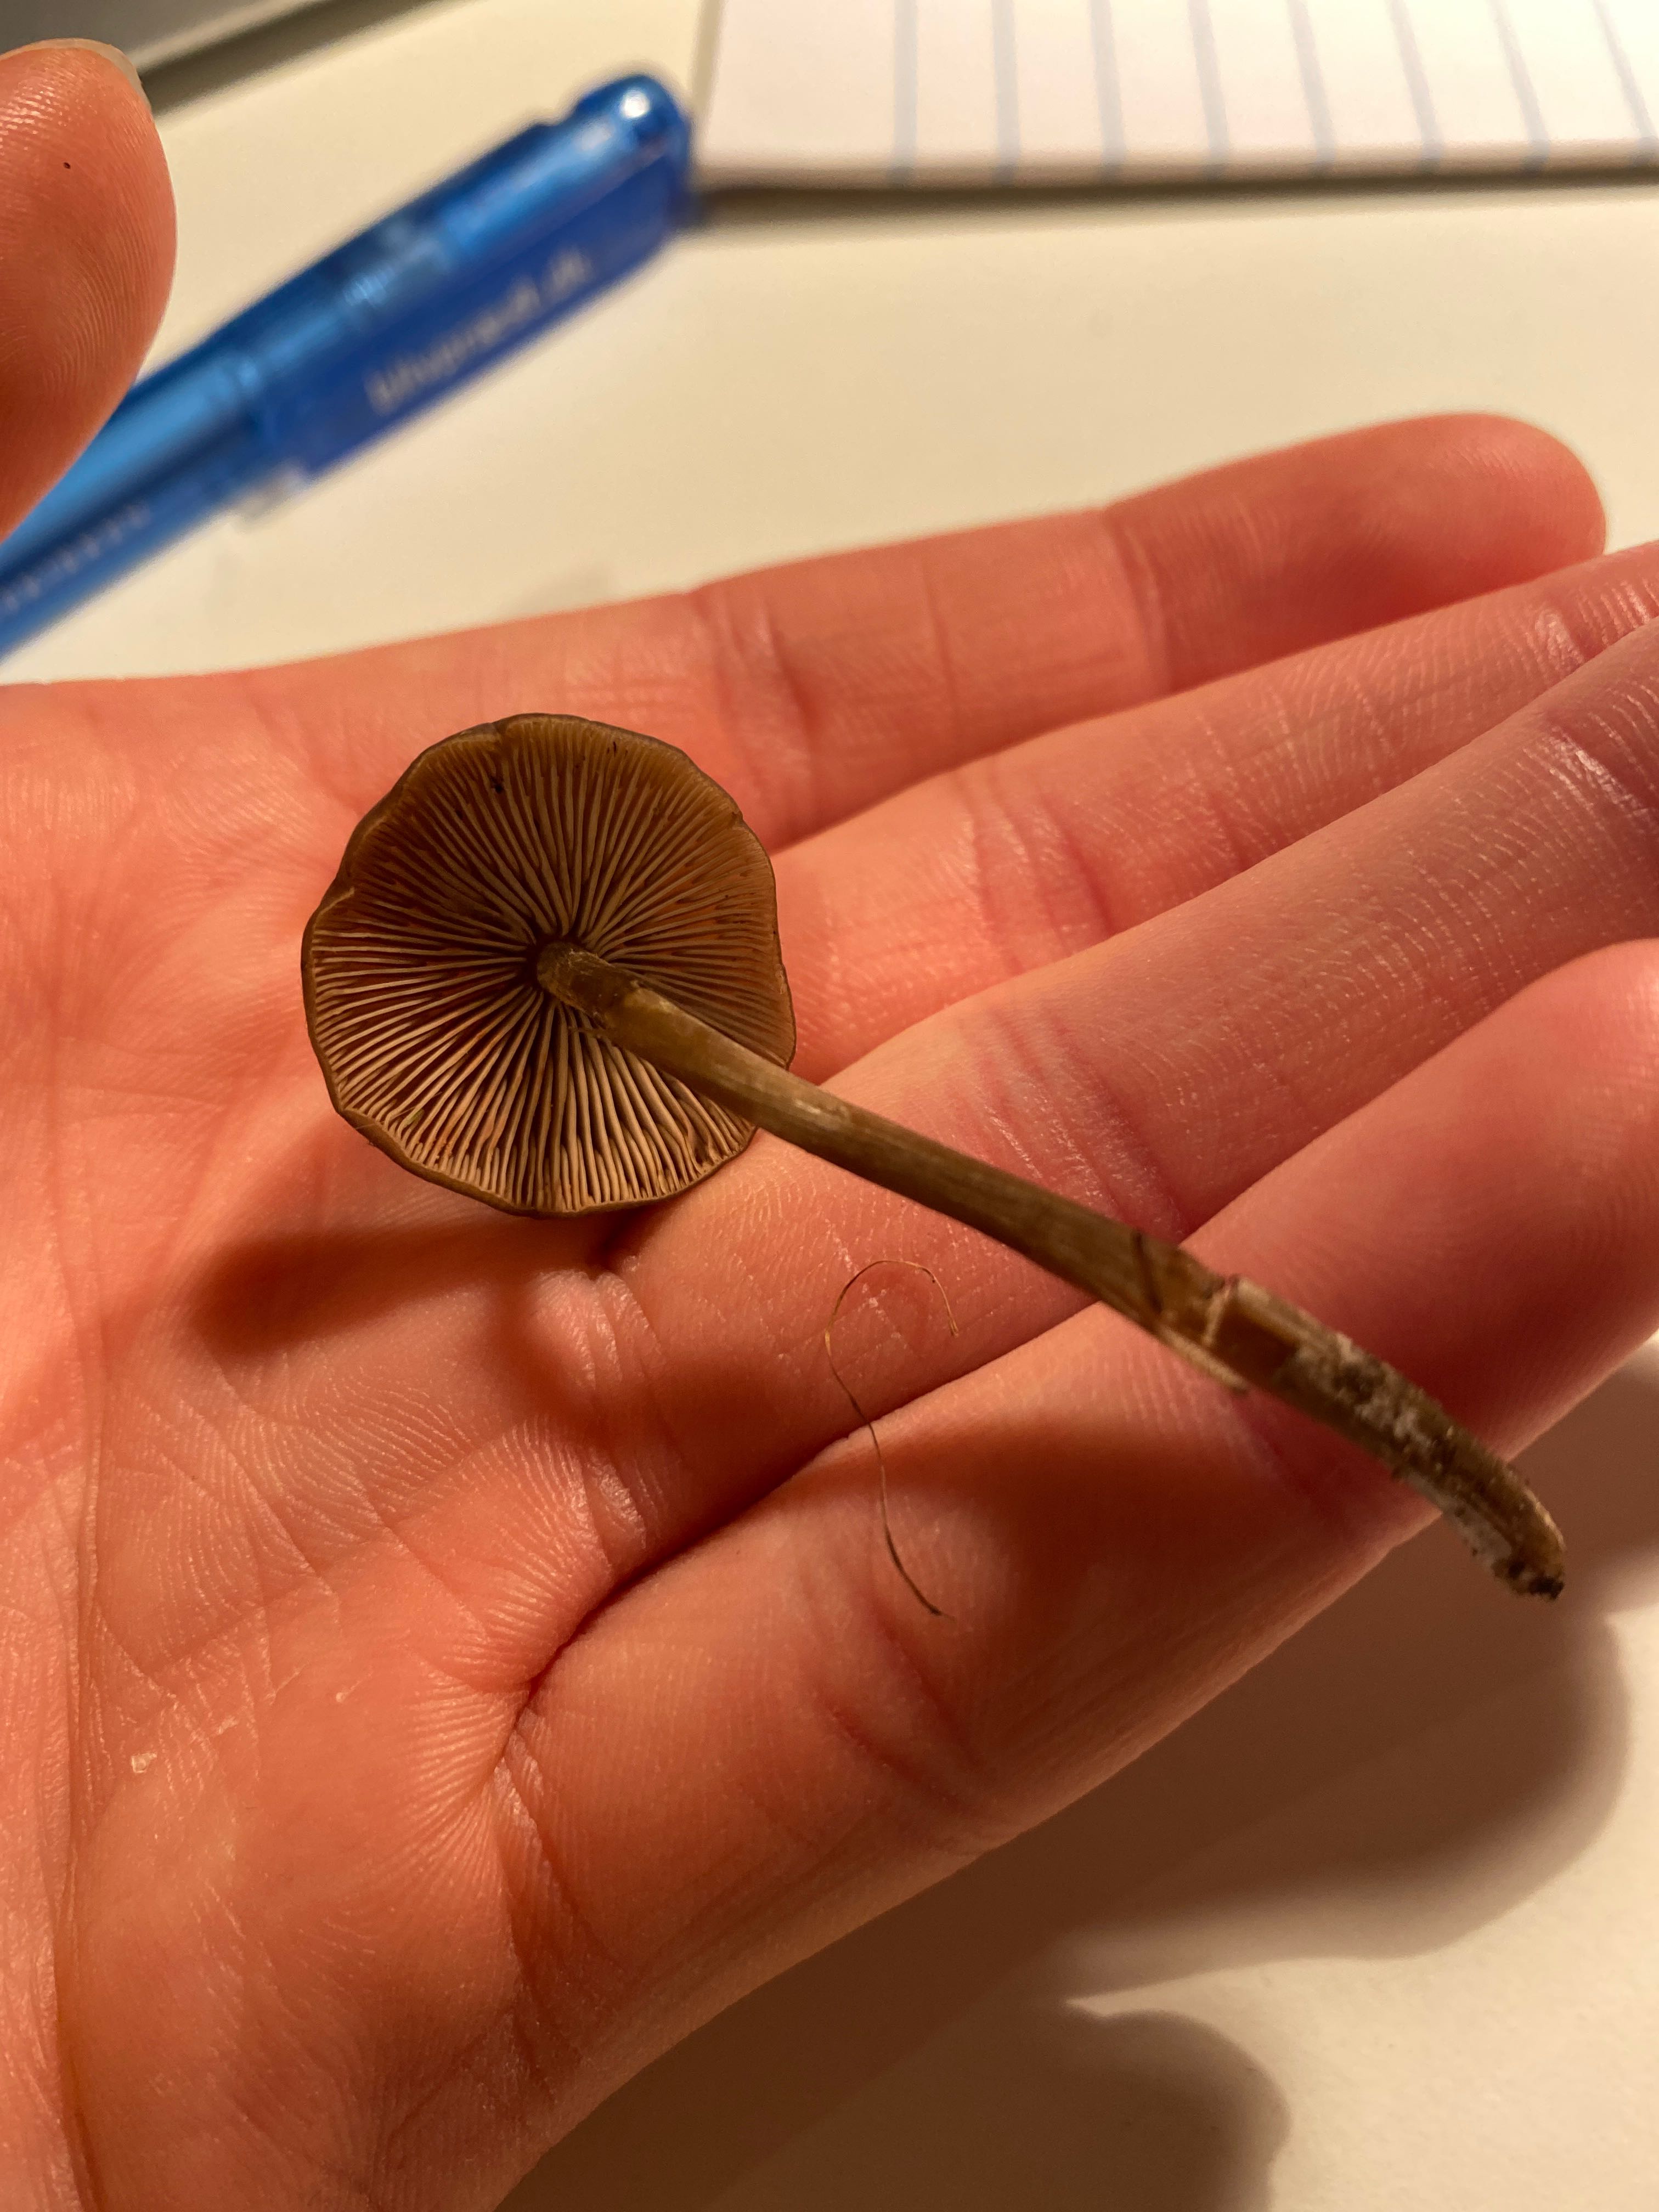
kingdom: Fungi
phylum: Basidiomycota
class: Agaricomycetes
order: Agaricales
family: Entolomataceae
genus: Entoloma
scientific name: Entoloma
